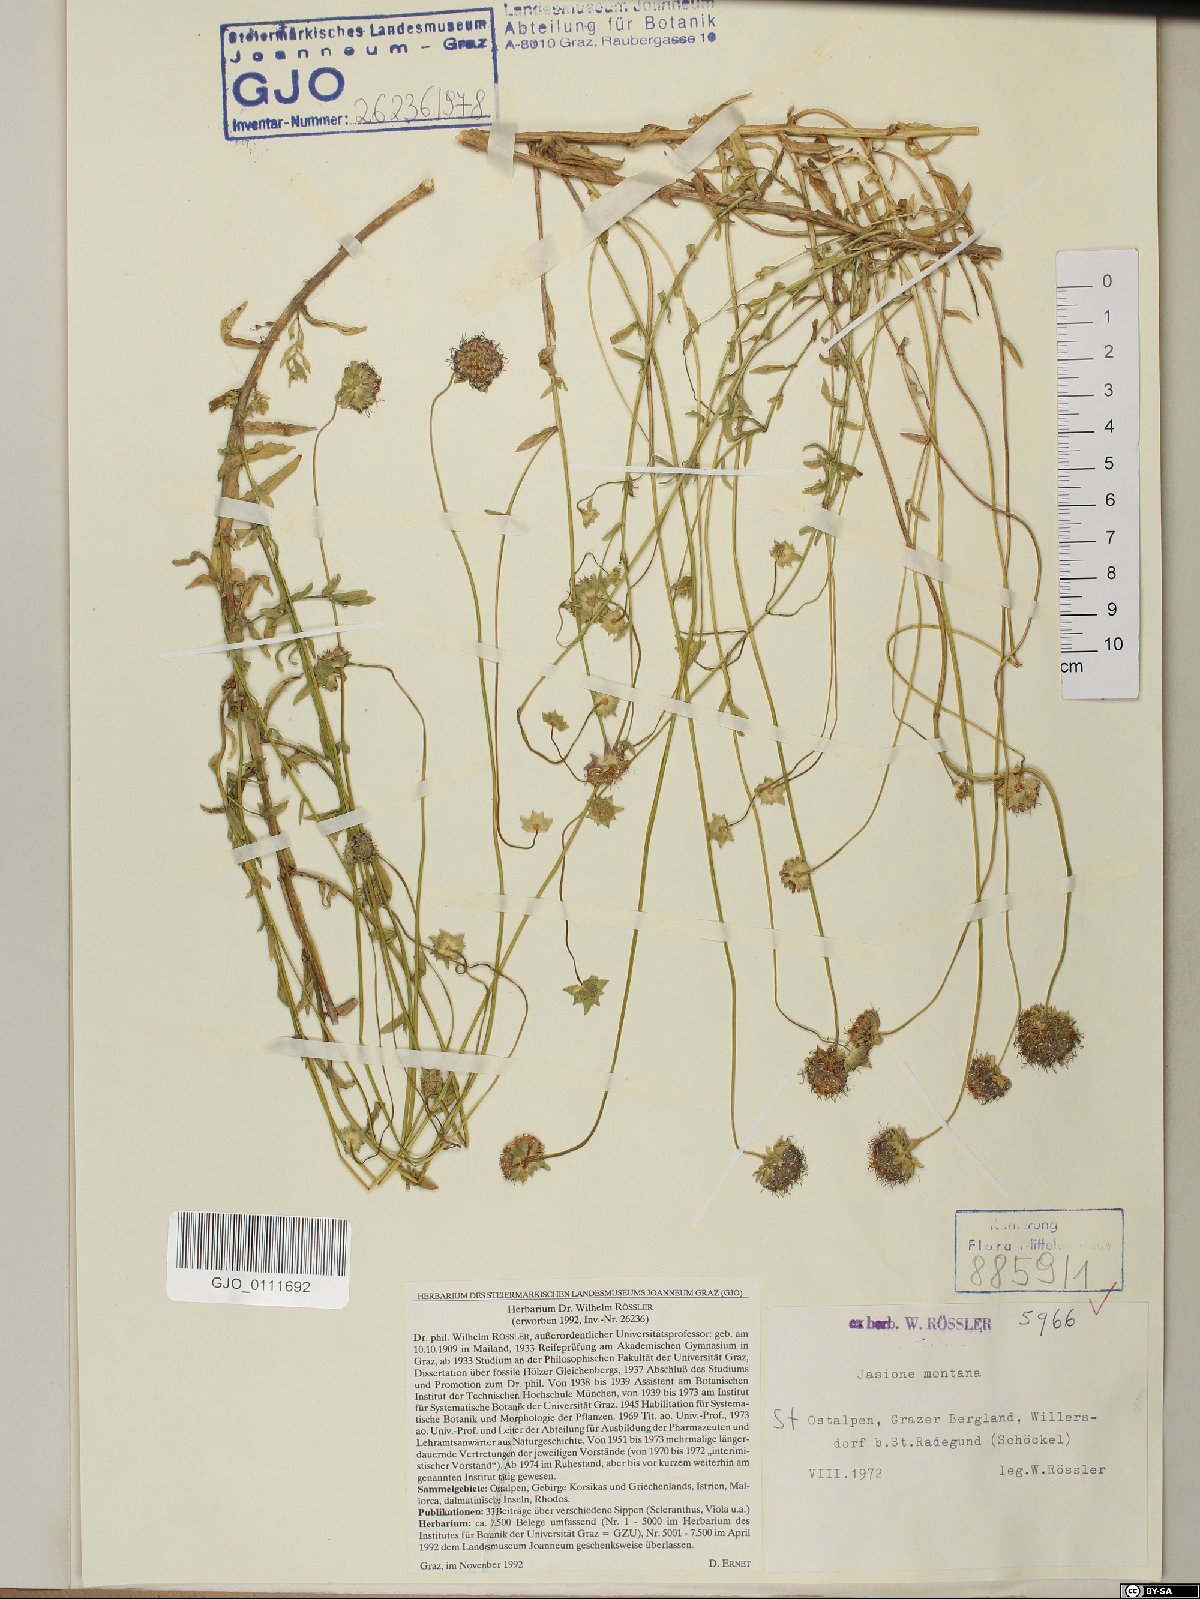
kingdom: Plantae
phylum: Tracheophyta
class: Magnoliopsida
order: Asterales
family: Campanulaceae
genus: Jasione
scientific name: Jasione montana
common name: Sheep's-bit
